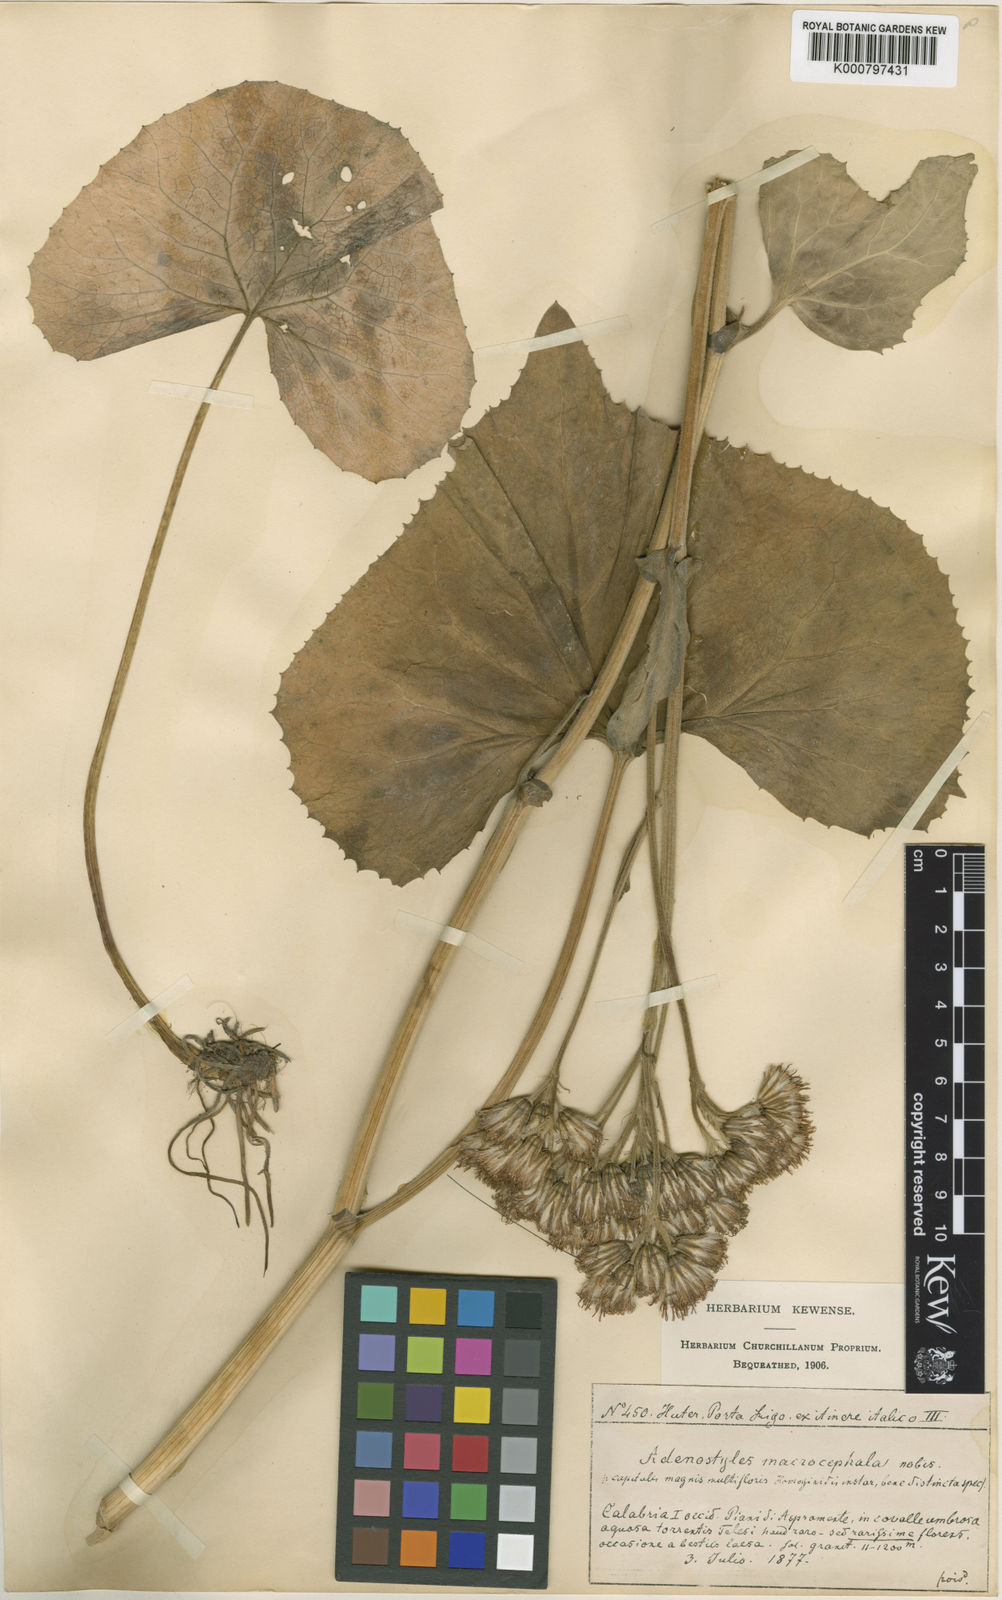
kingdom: Plantae
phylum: Tracheophyta
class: Magnoliopsida
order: Asterales
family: Asteraceae
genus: Adenostyles
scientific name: Adenostyles alliariae
